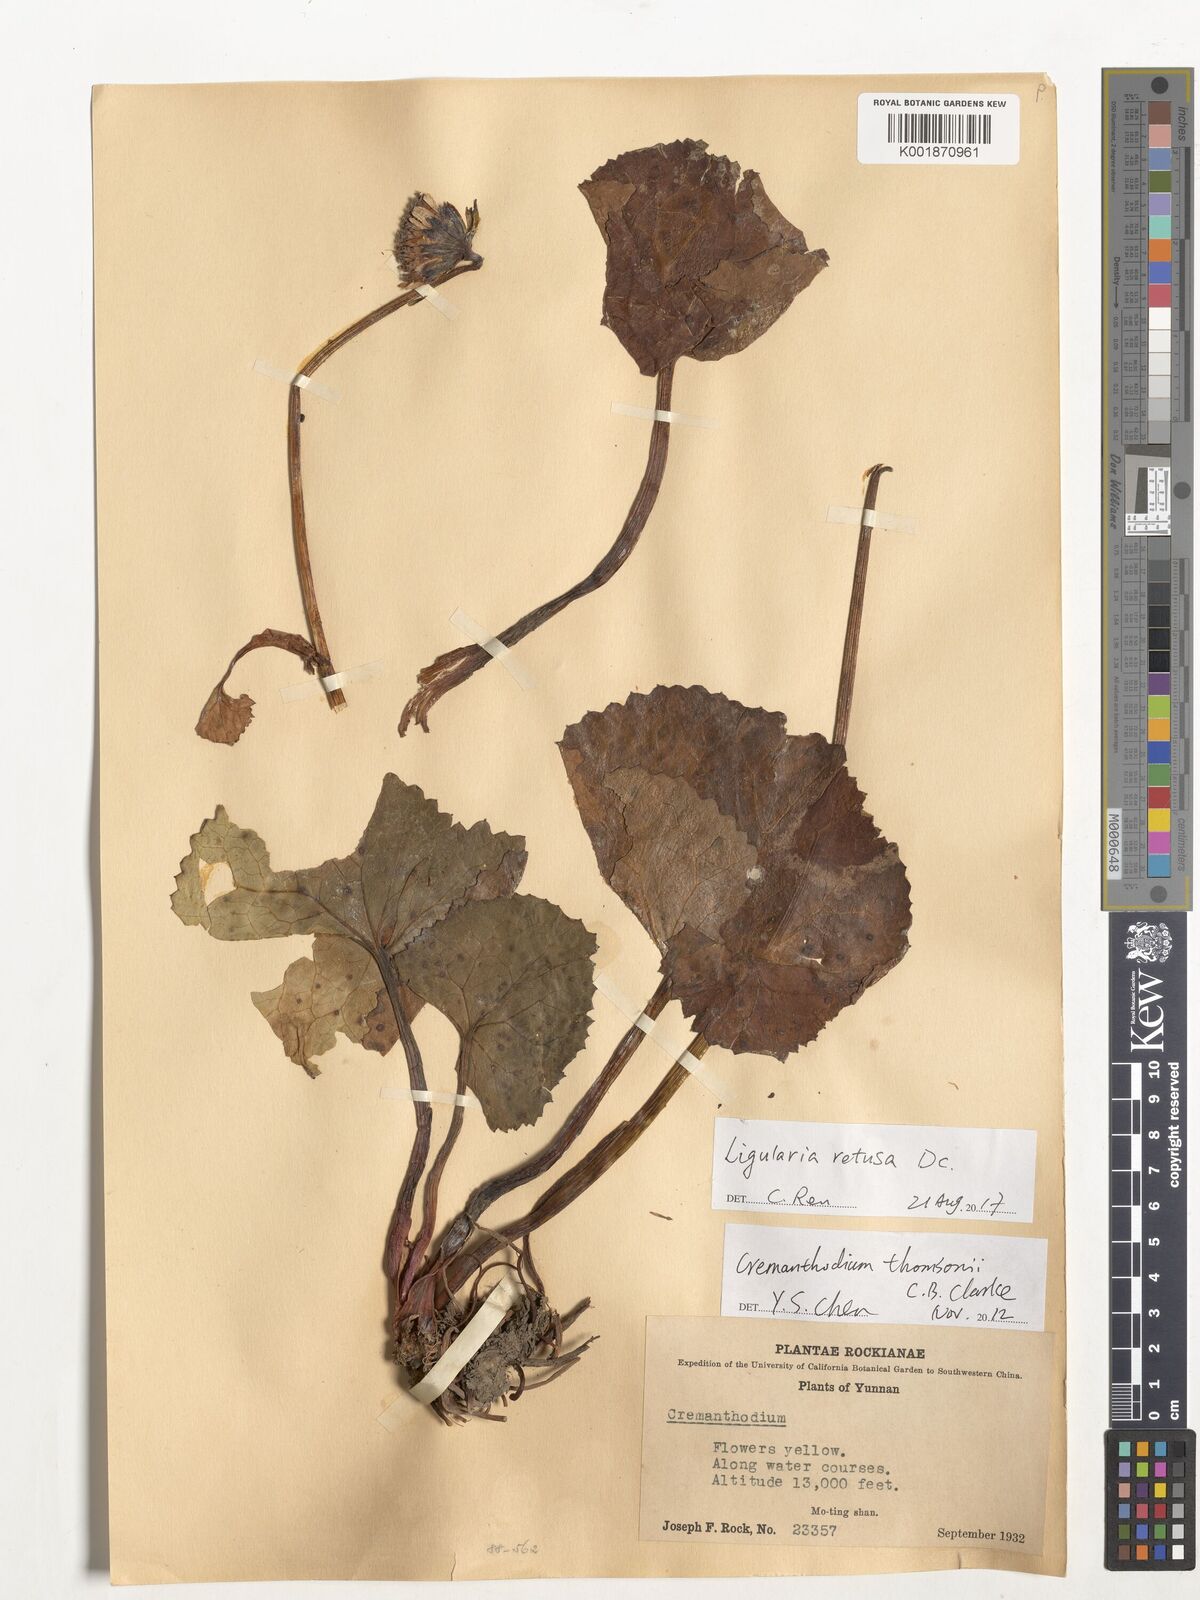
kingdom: Plantae
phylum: Tracheophyta
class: Magnoliopsida
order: Asterales
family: Asteraceae
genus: Ligularia
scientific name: Ligularia retusa
